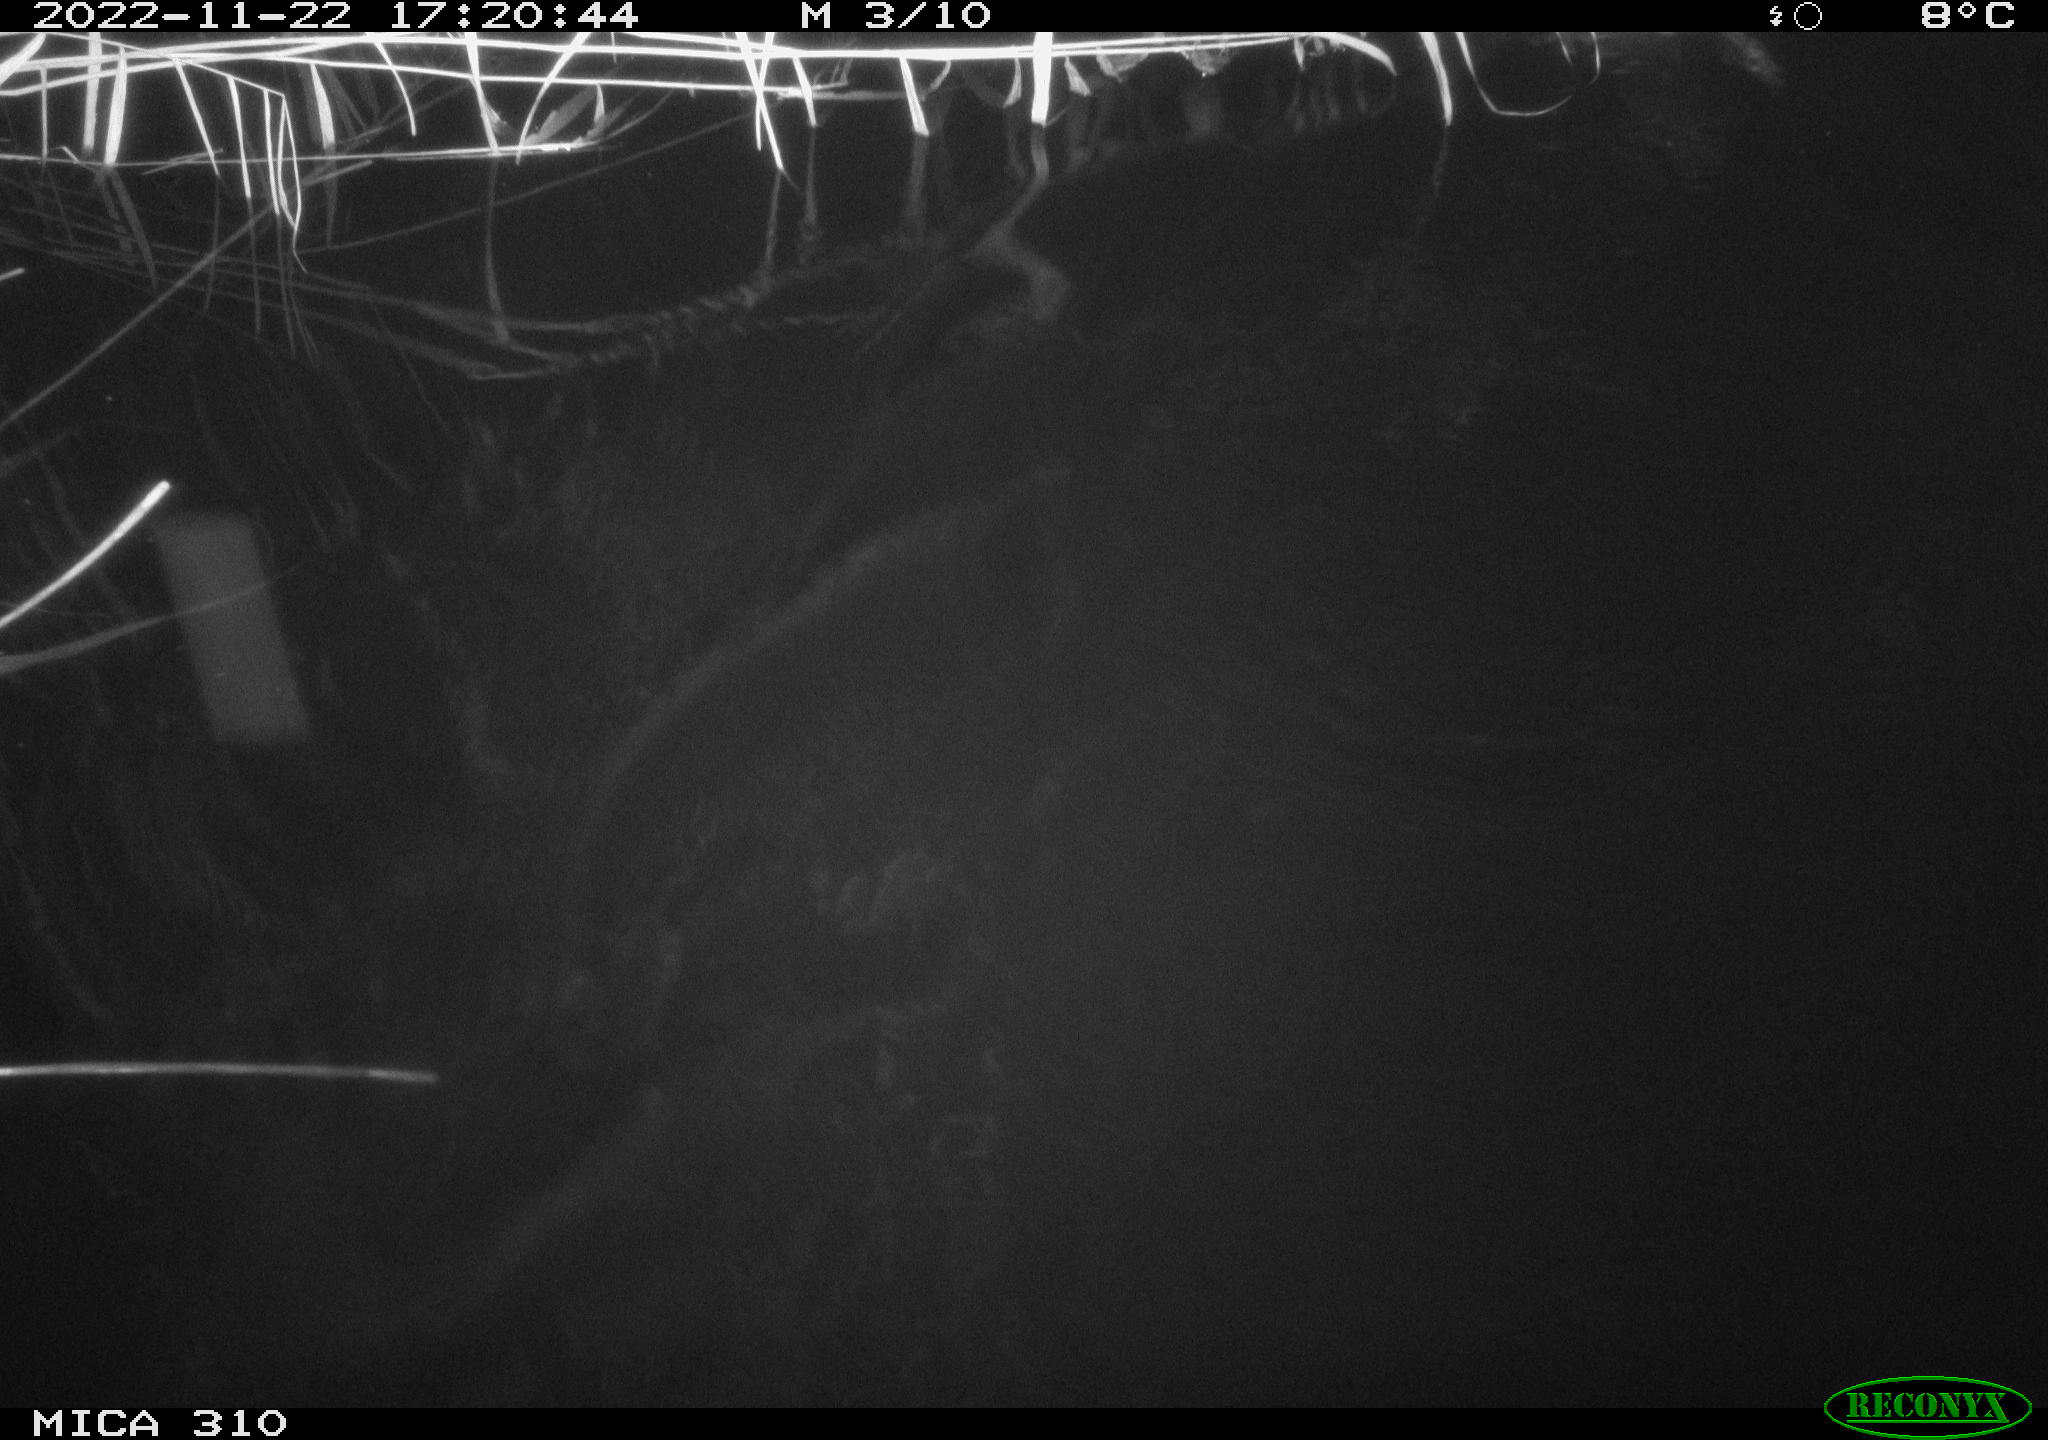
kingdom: Animalia
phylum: Chordata
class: Aves
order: Anseriformes
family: Anatidae
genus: Anas
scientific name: Anas
